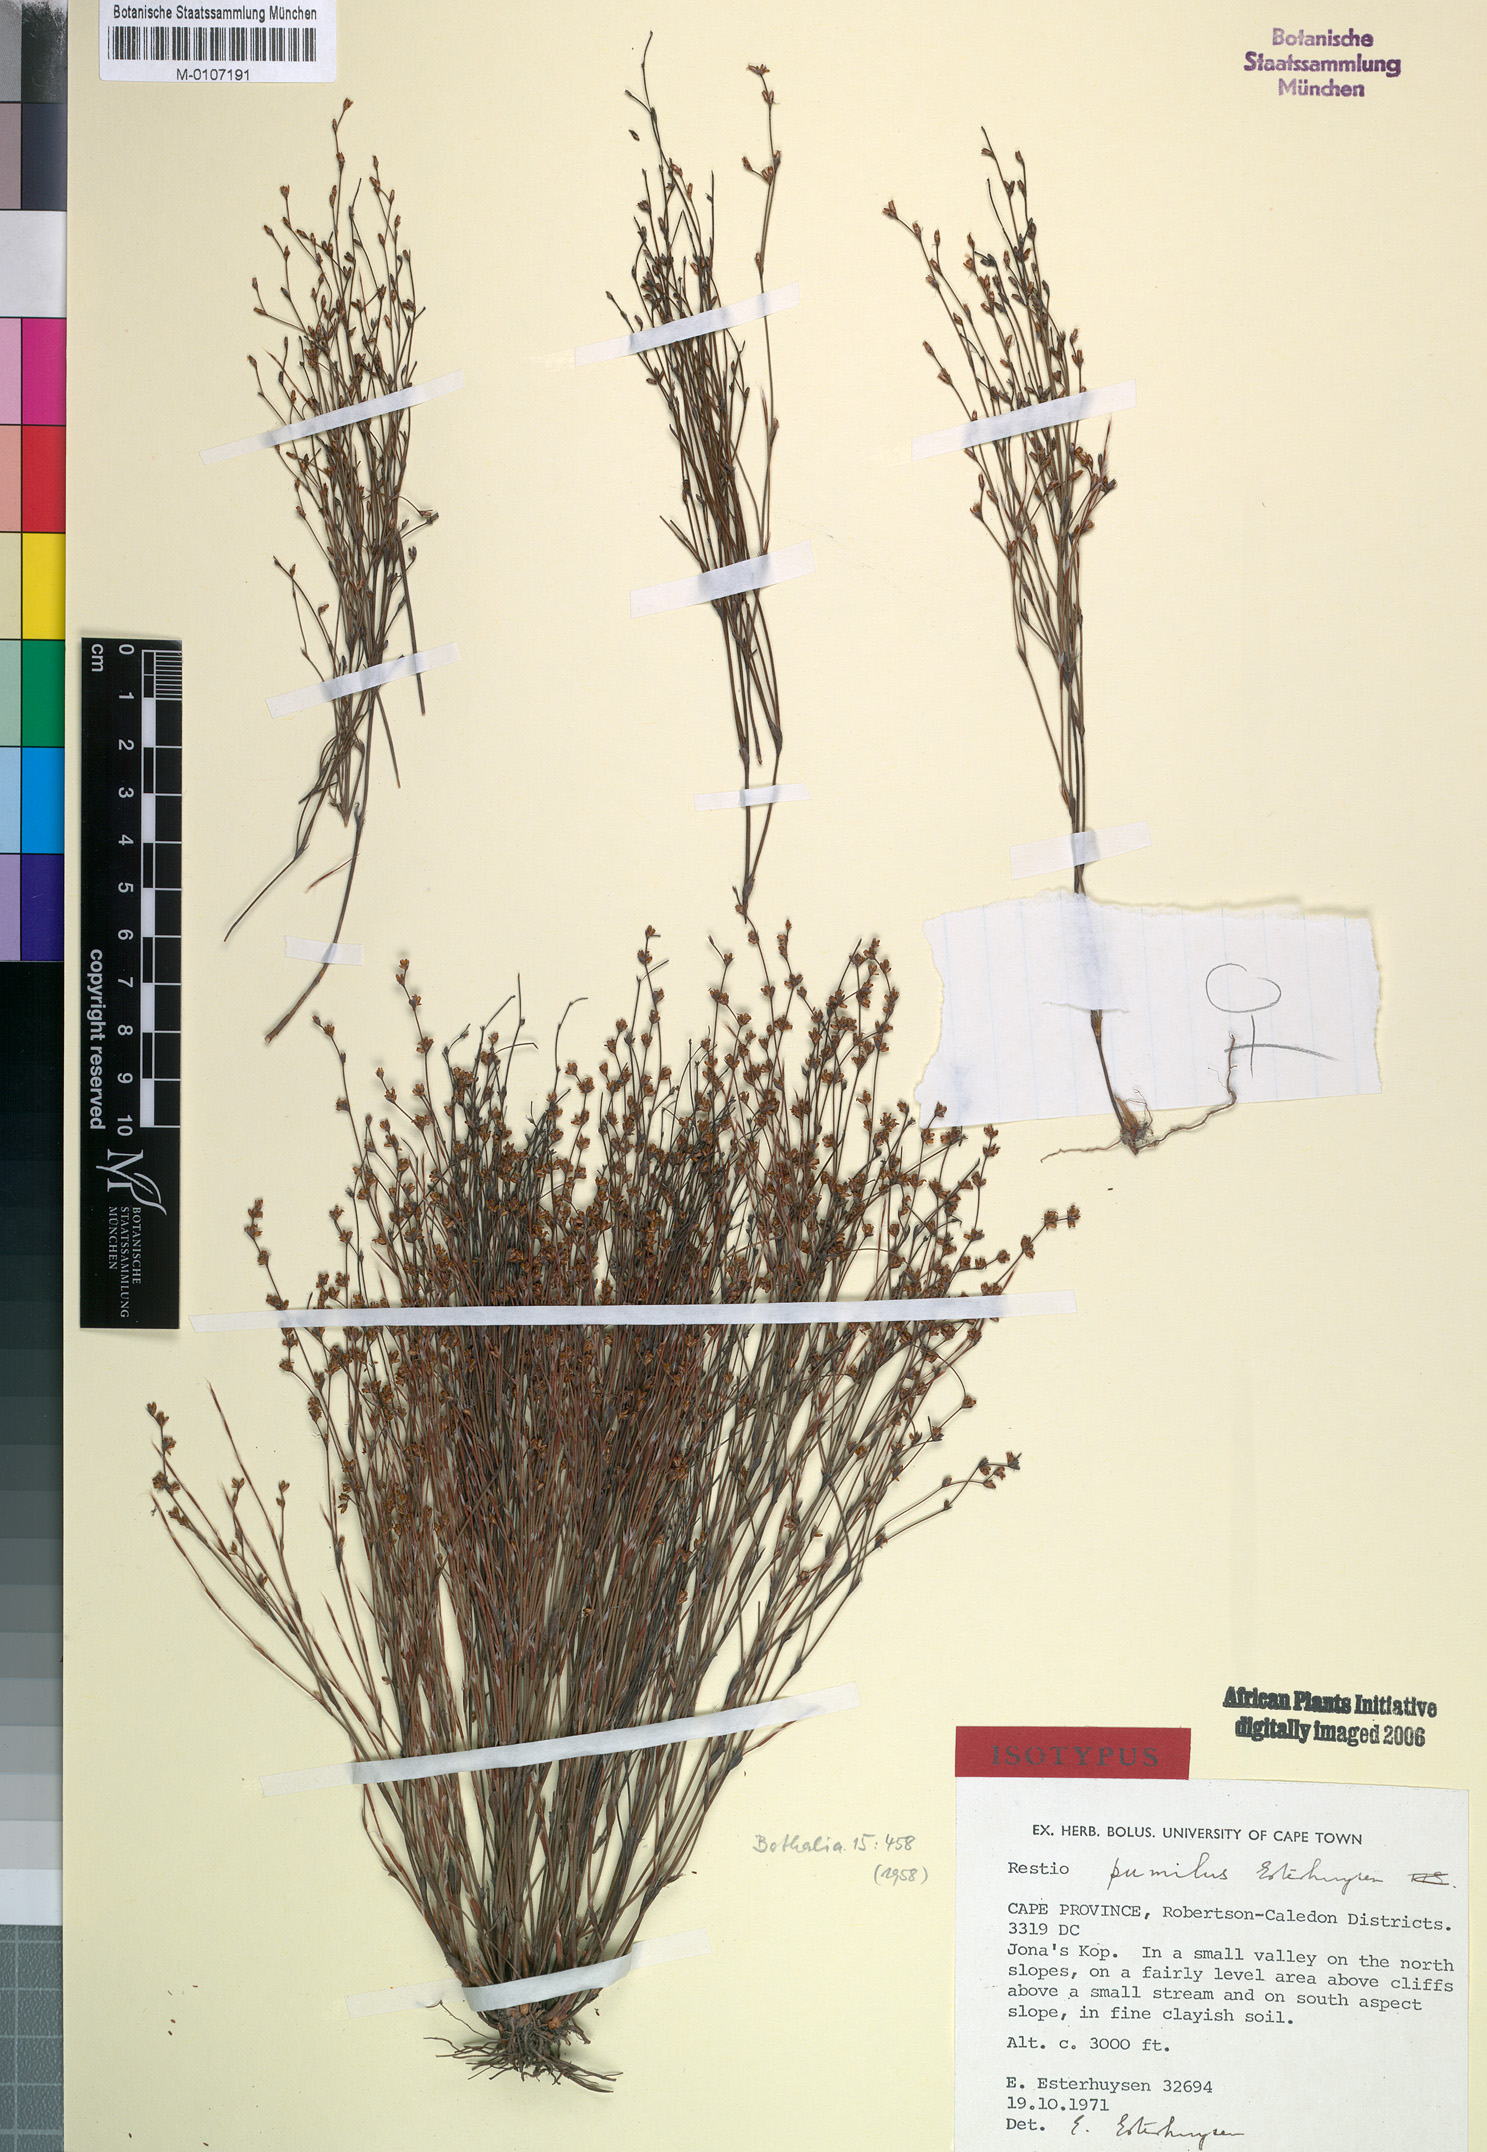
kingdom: Plantae
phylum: Tracheophyta
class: Liliopsida
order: Poales
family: Restionaceae
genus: Restio
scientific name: Restio pumilus
